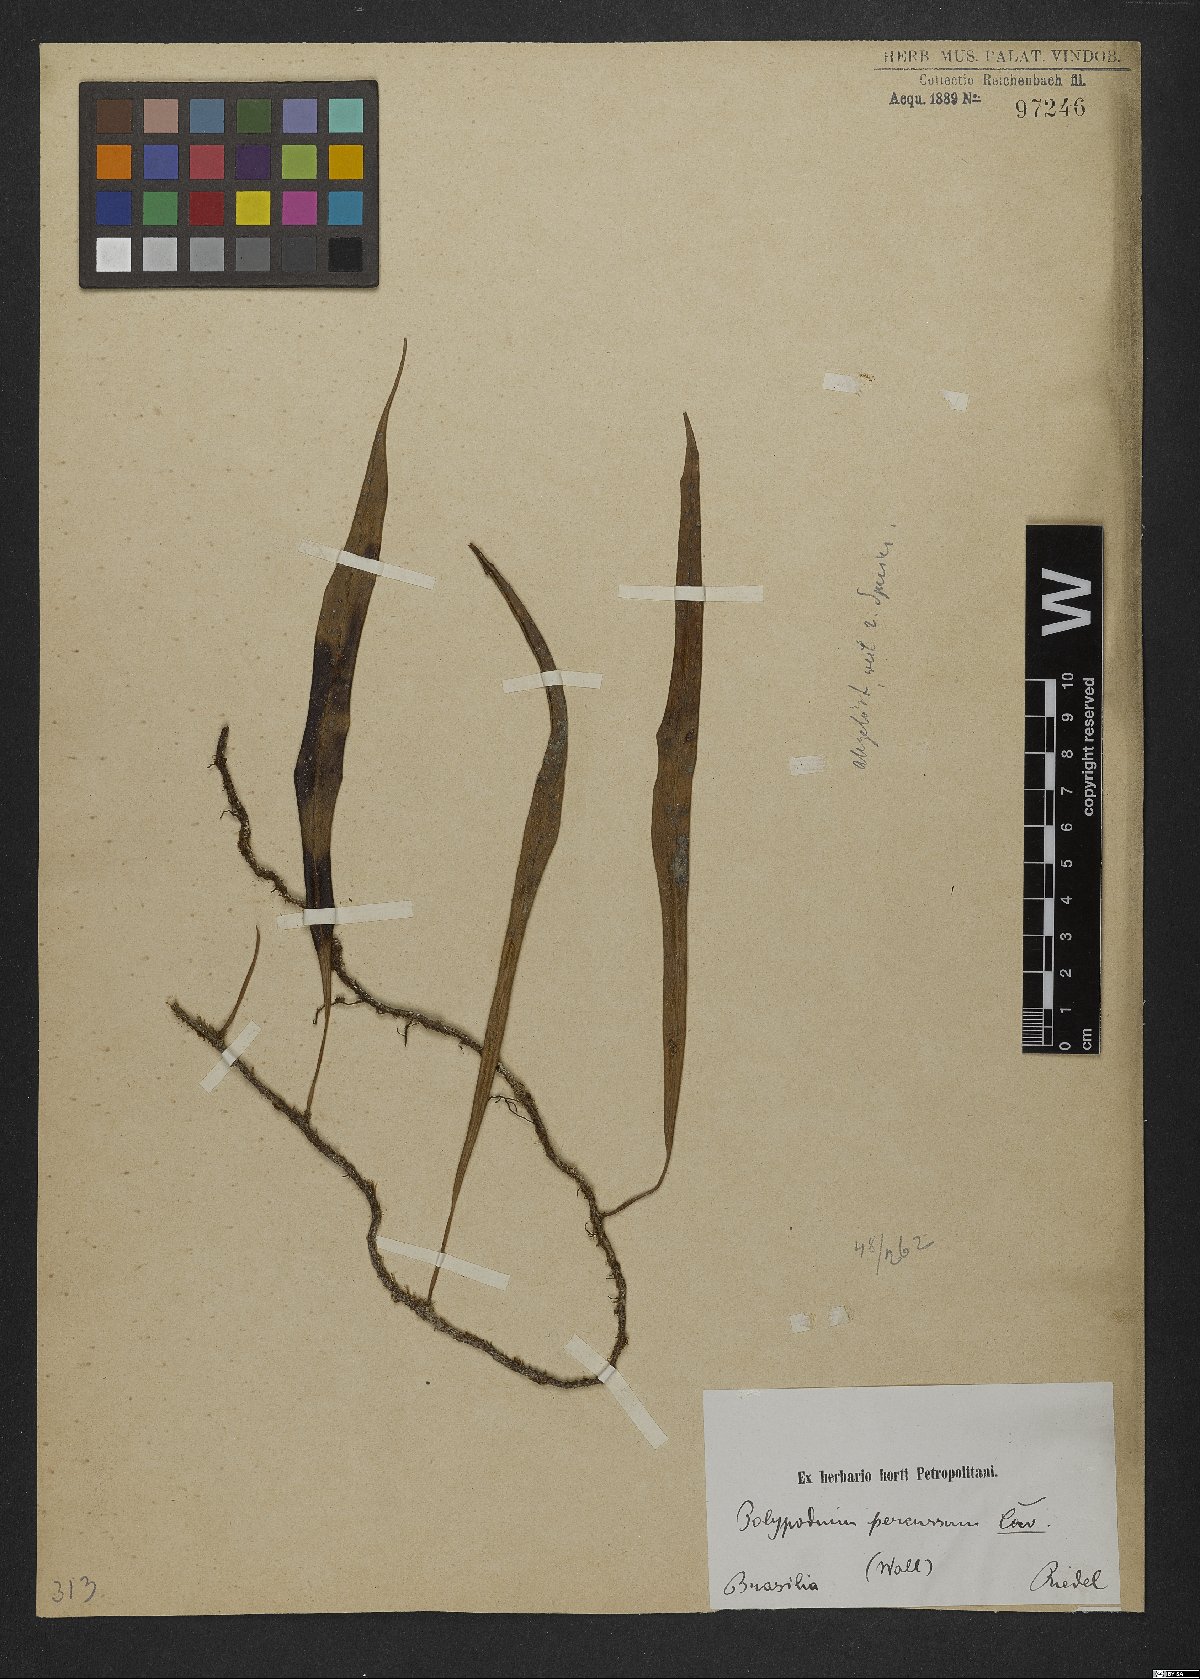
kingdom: Plantae
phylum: Tracheophyta
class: Polypodiopsida
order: Polypodiales
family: Polypodiaceae
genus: Microgramma
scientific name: Microgramma percussa
